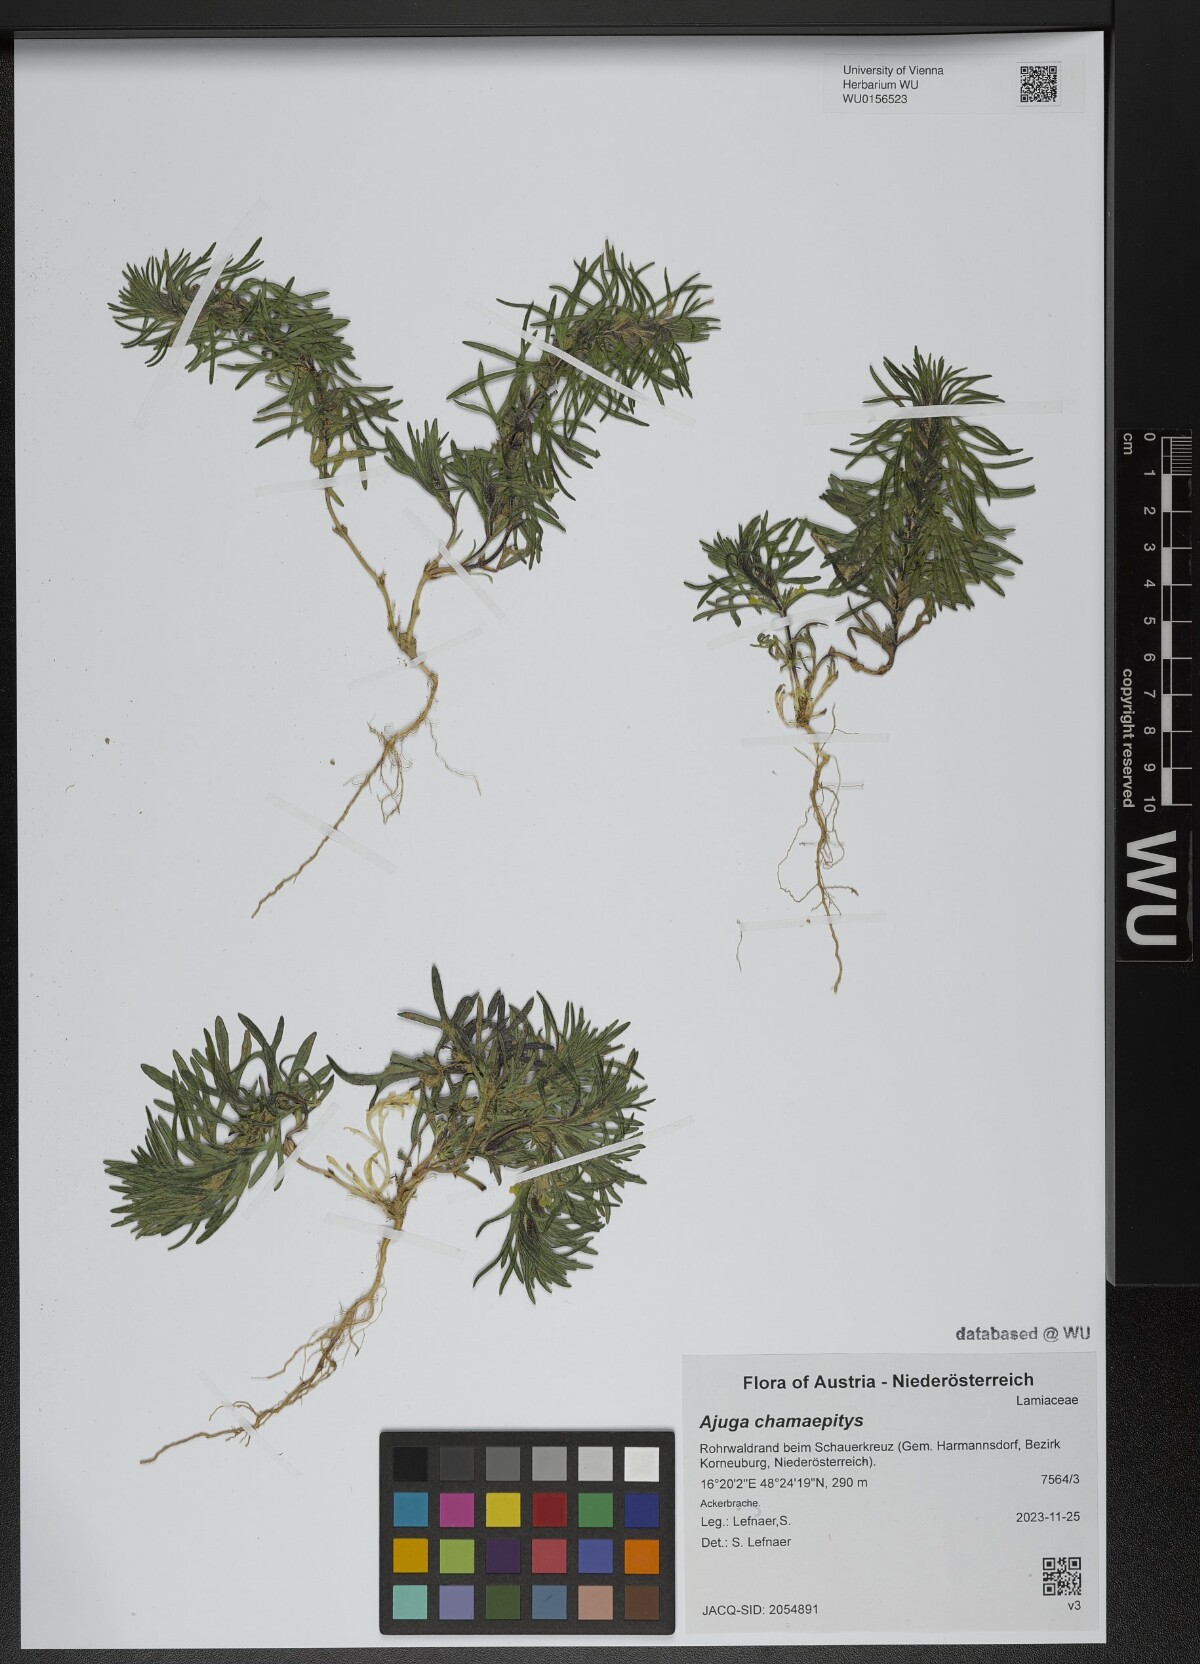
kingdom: Plantae
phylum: Tracheophyta
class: Magnoliopsida
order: Lamiales
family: Lamiaceae
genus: Ajuga
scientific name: Ajuga chamaepitys
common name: Ground-pine
